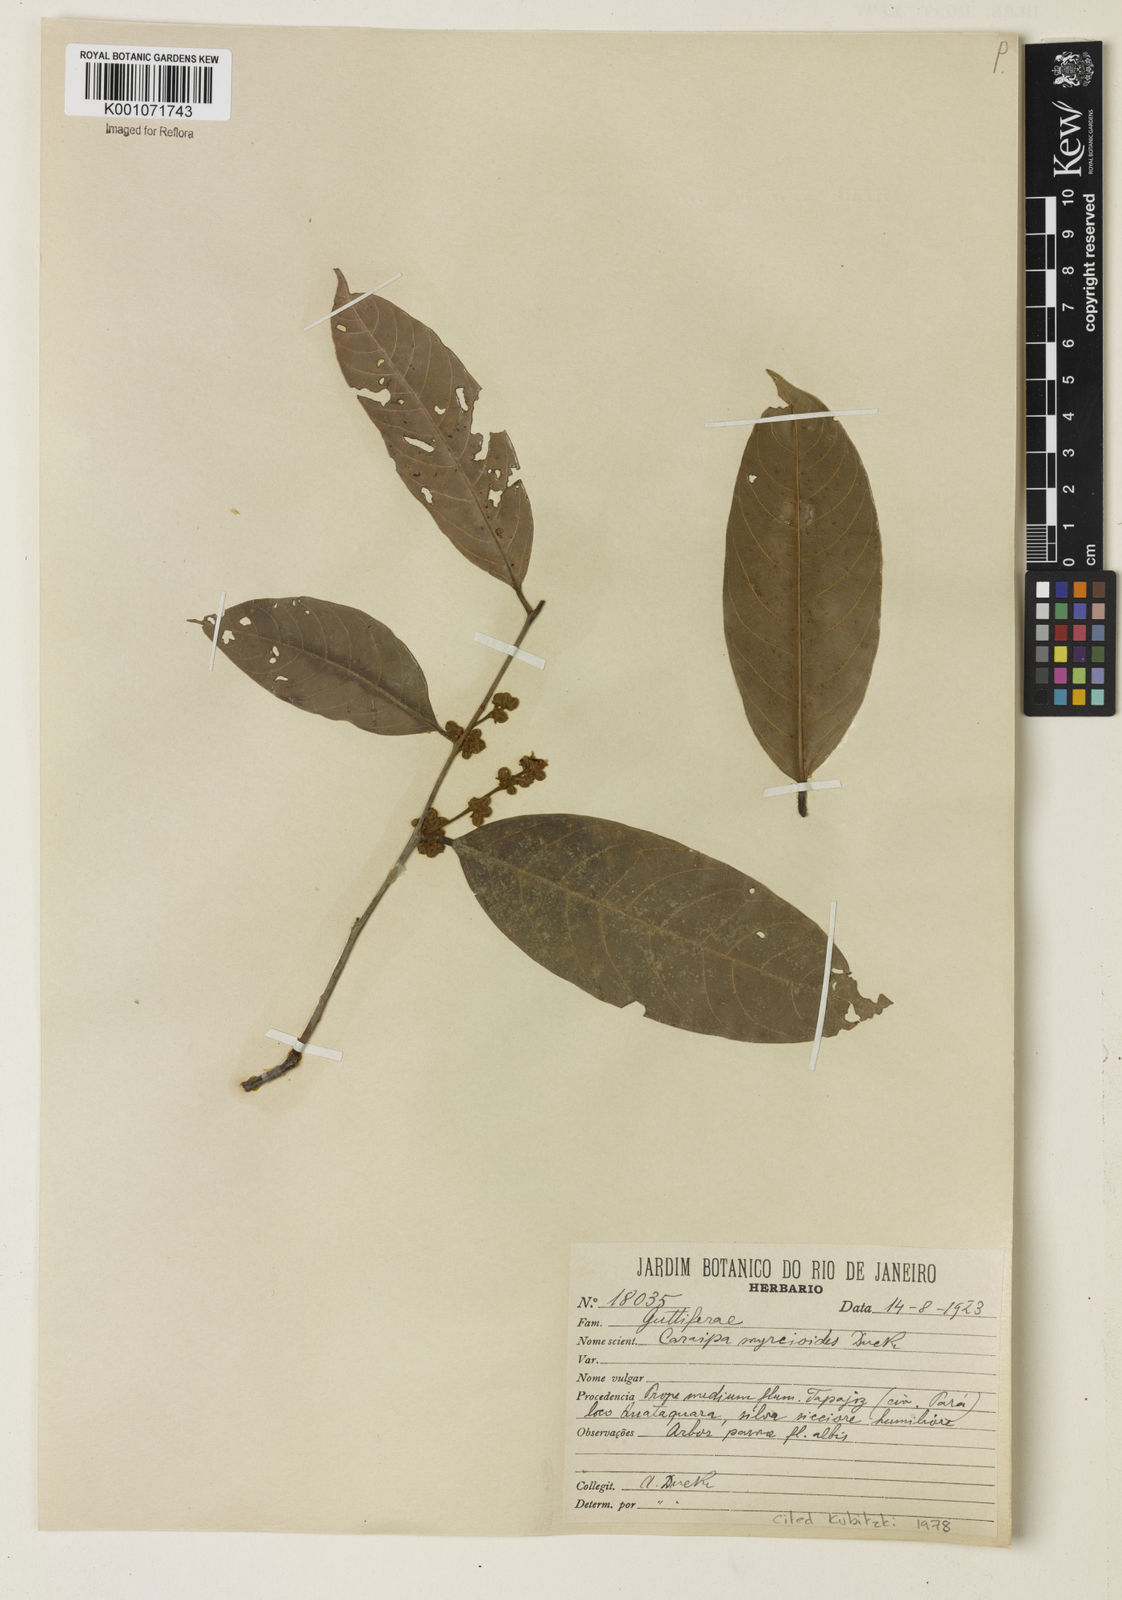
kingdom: Plantae
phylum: Tracheophyta
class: Magnoliopsida
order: Malpighiales
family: Calophyllaceae
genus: Caraipa
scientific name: Caraipa myrcioides
